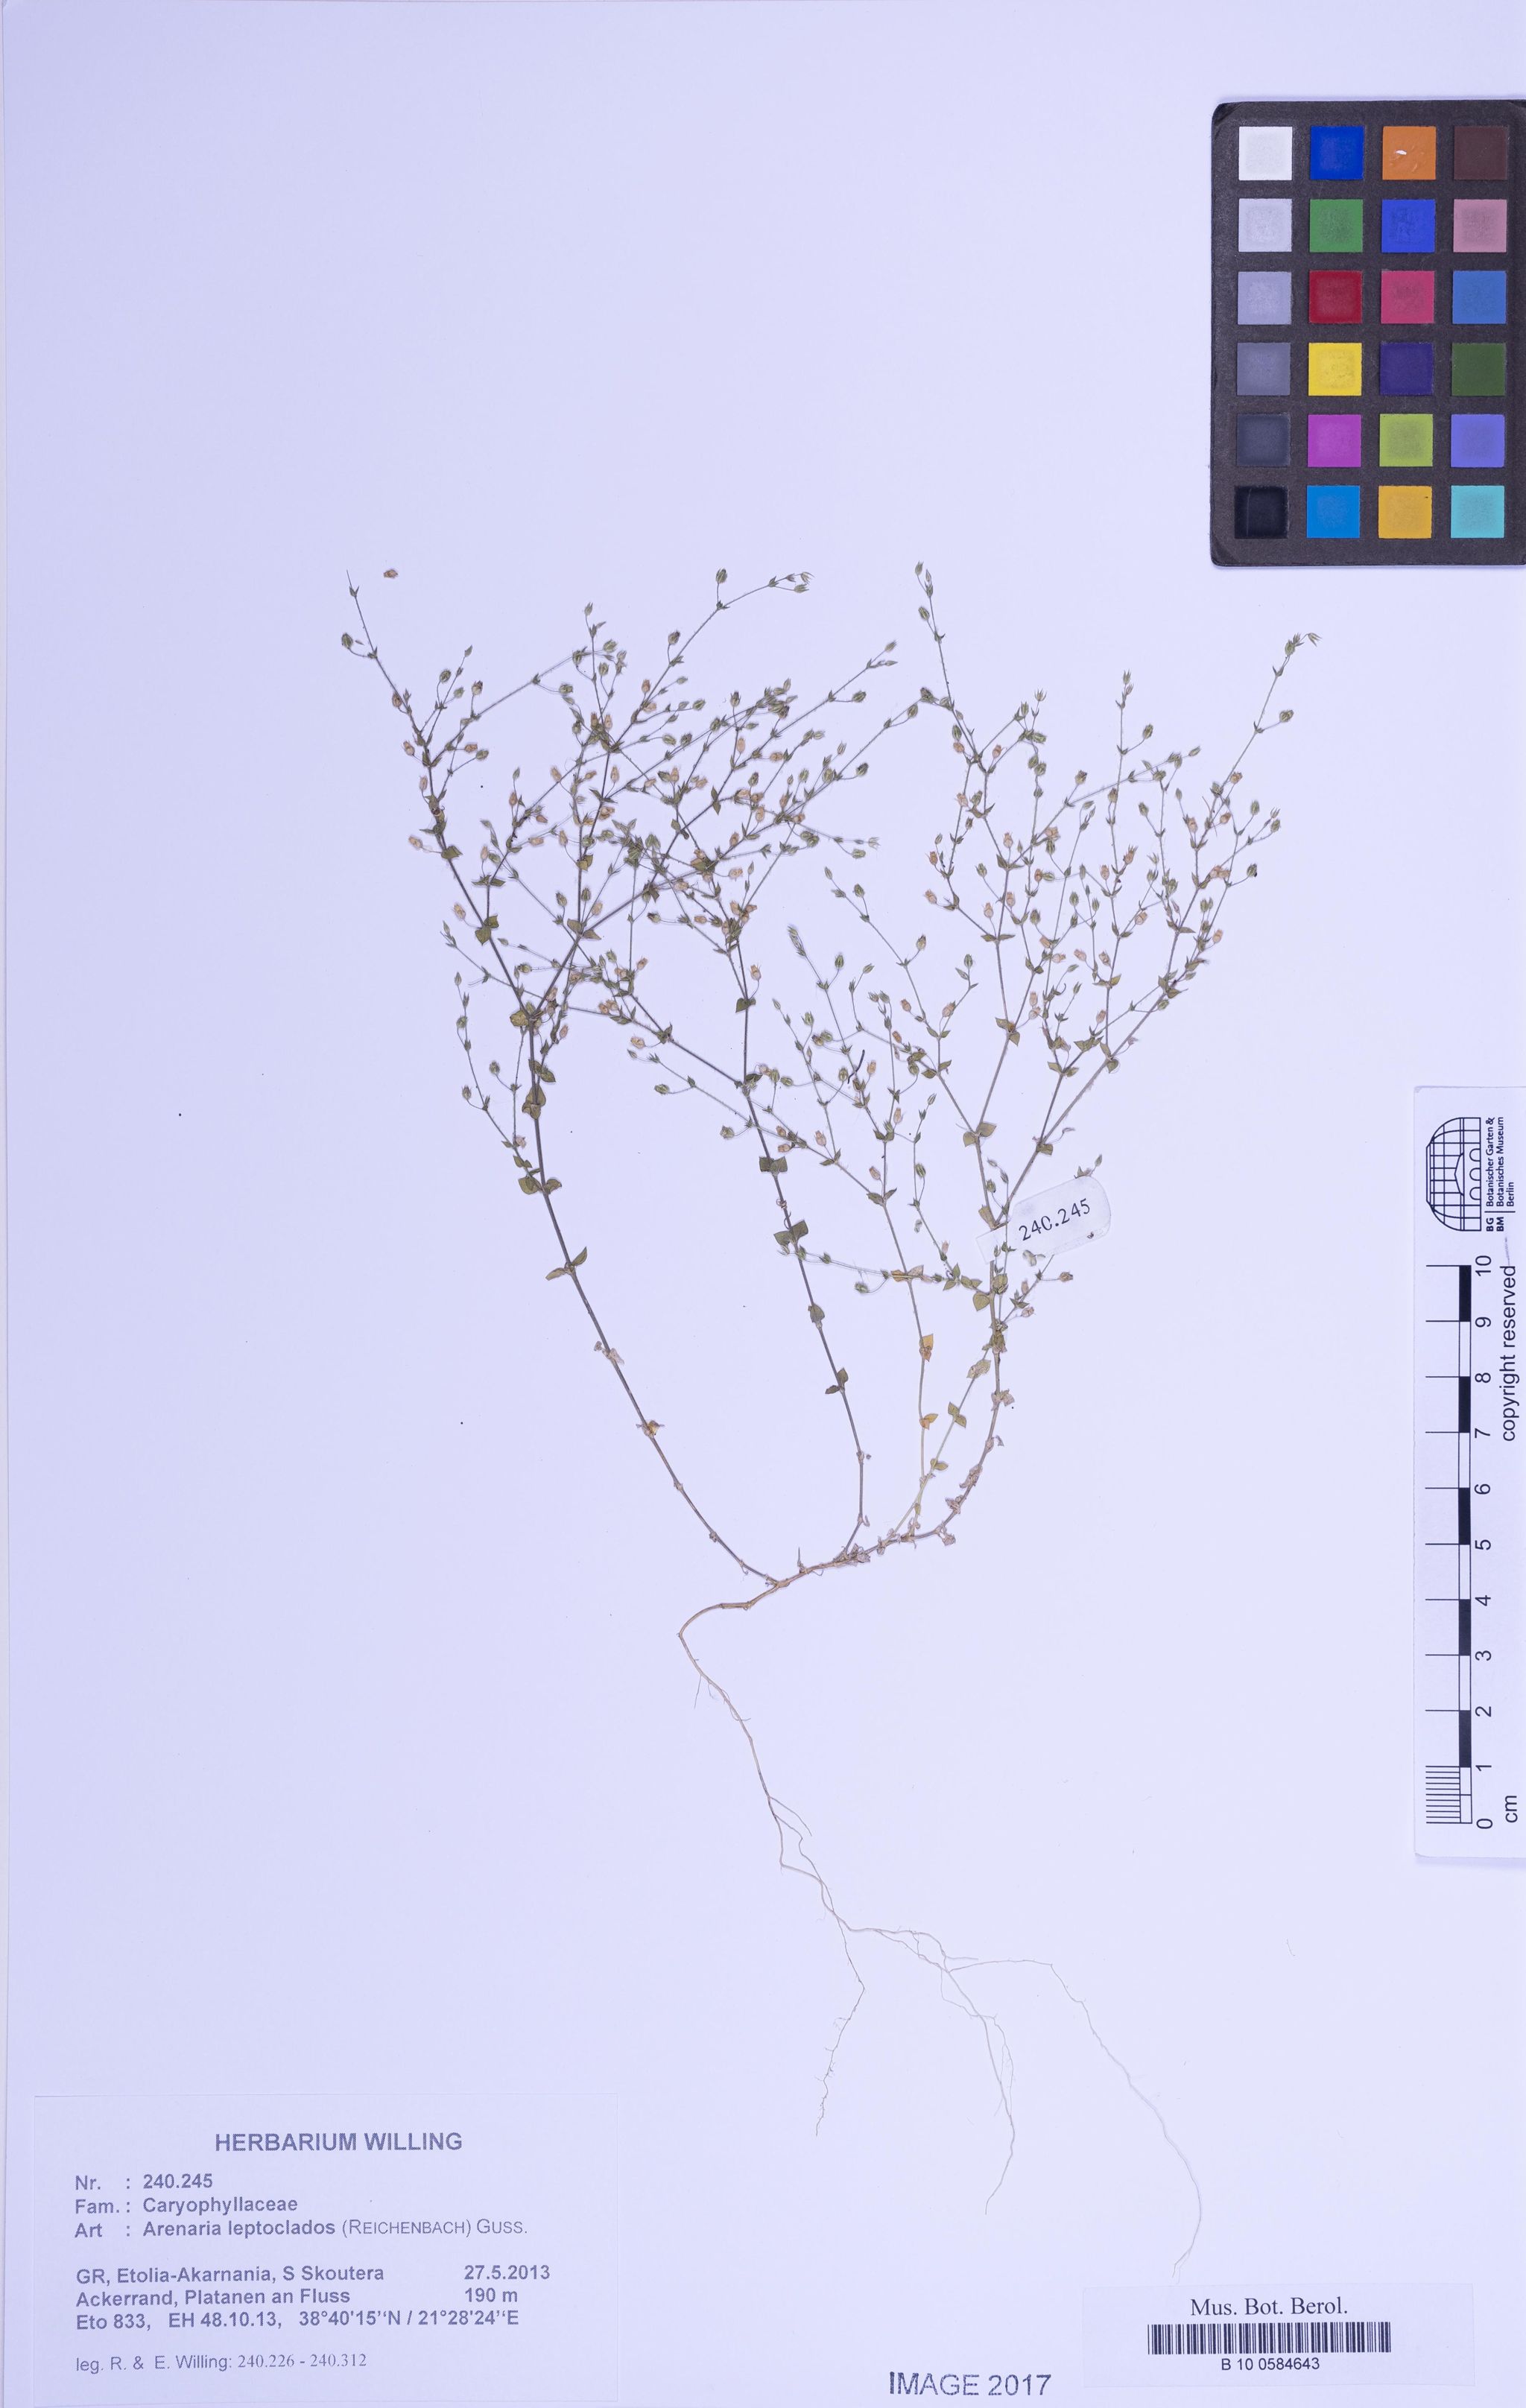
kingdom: Plantae
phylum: Tracheophyta
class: Magnoliopsida
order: Caryophyllales
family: Caryophyllaceae
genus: Arenaria
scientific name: Arenaria leptoclados
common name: Thyme-leaved sandwort
